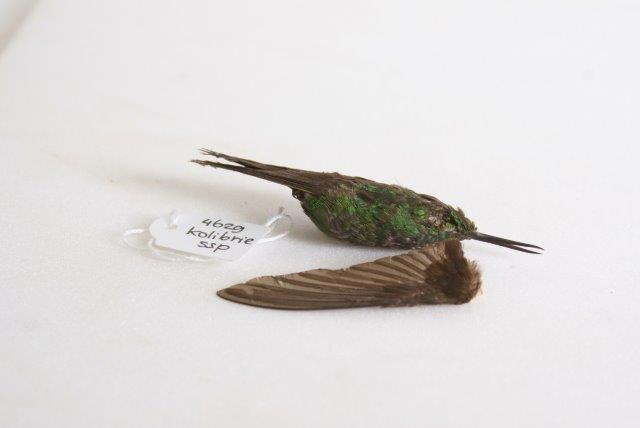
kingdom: Animalia
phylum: Chordata
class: Aves
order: Apodiformes
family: Trochilidae
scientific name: Trochilidae
